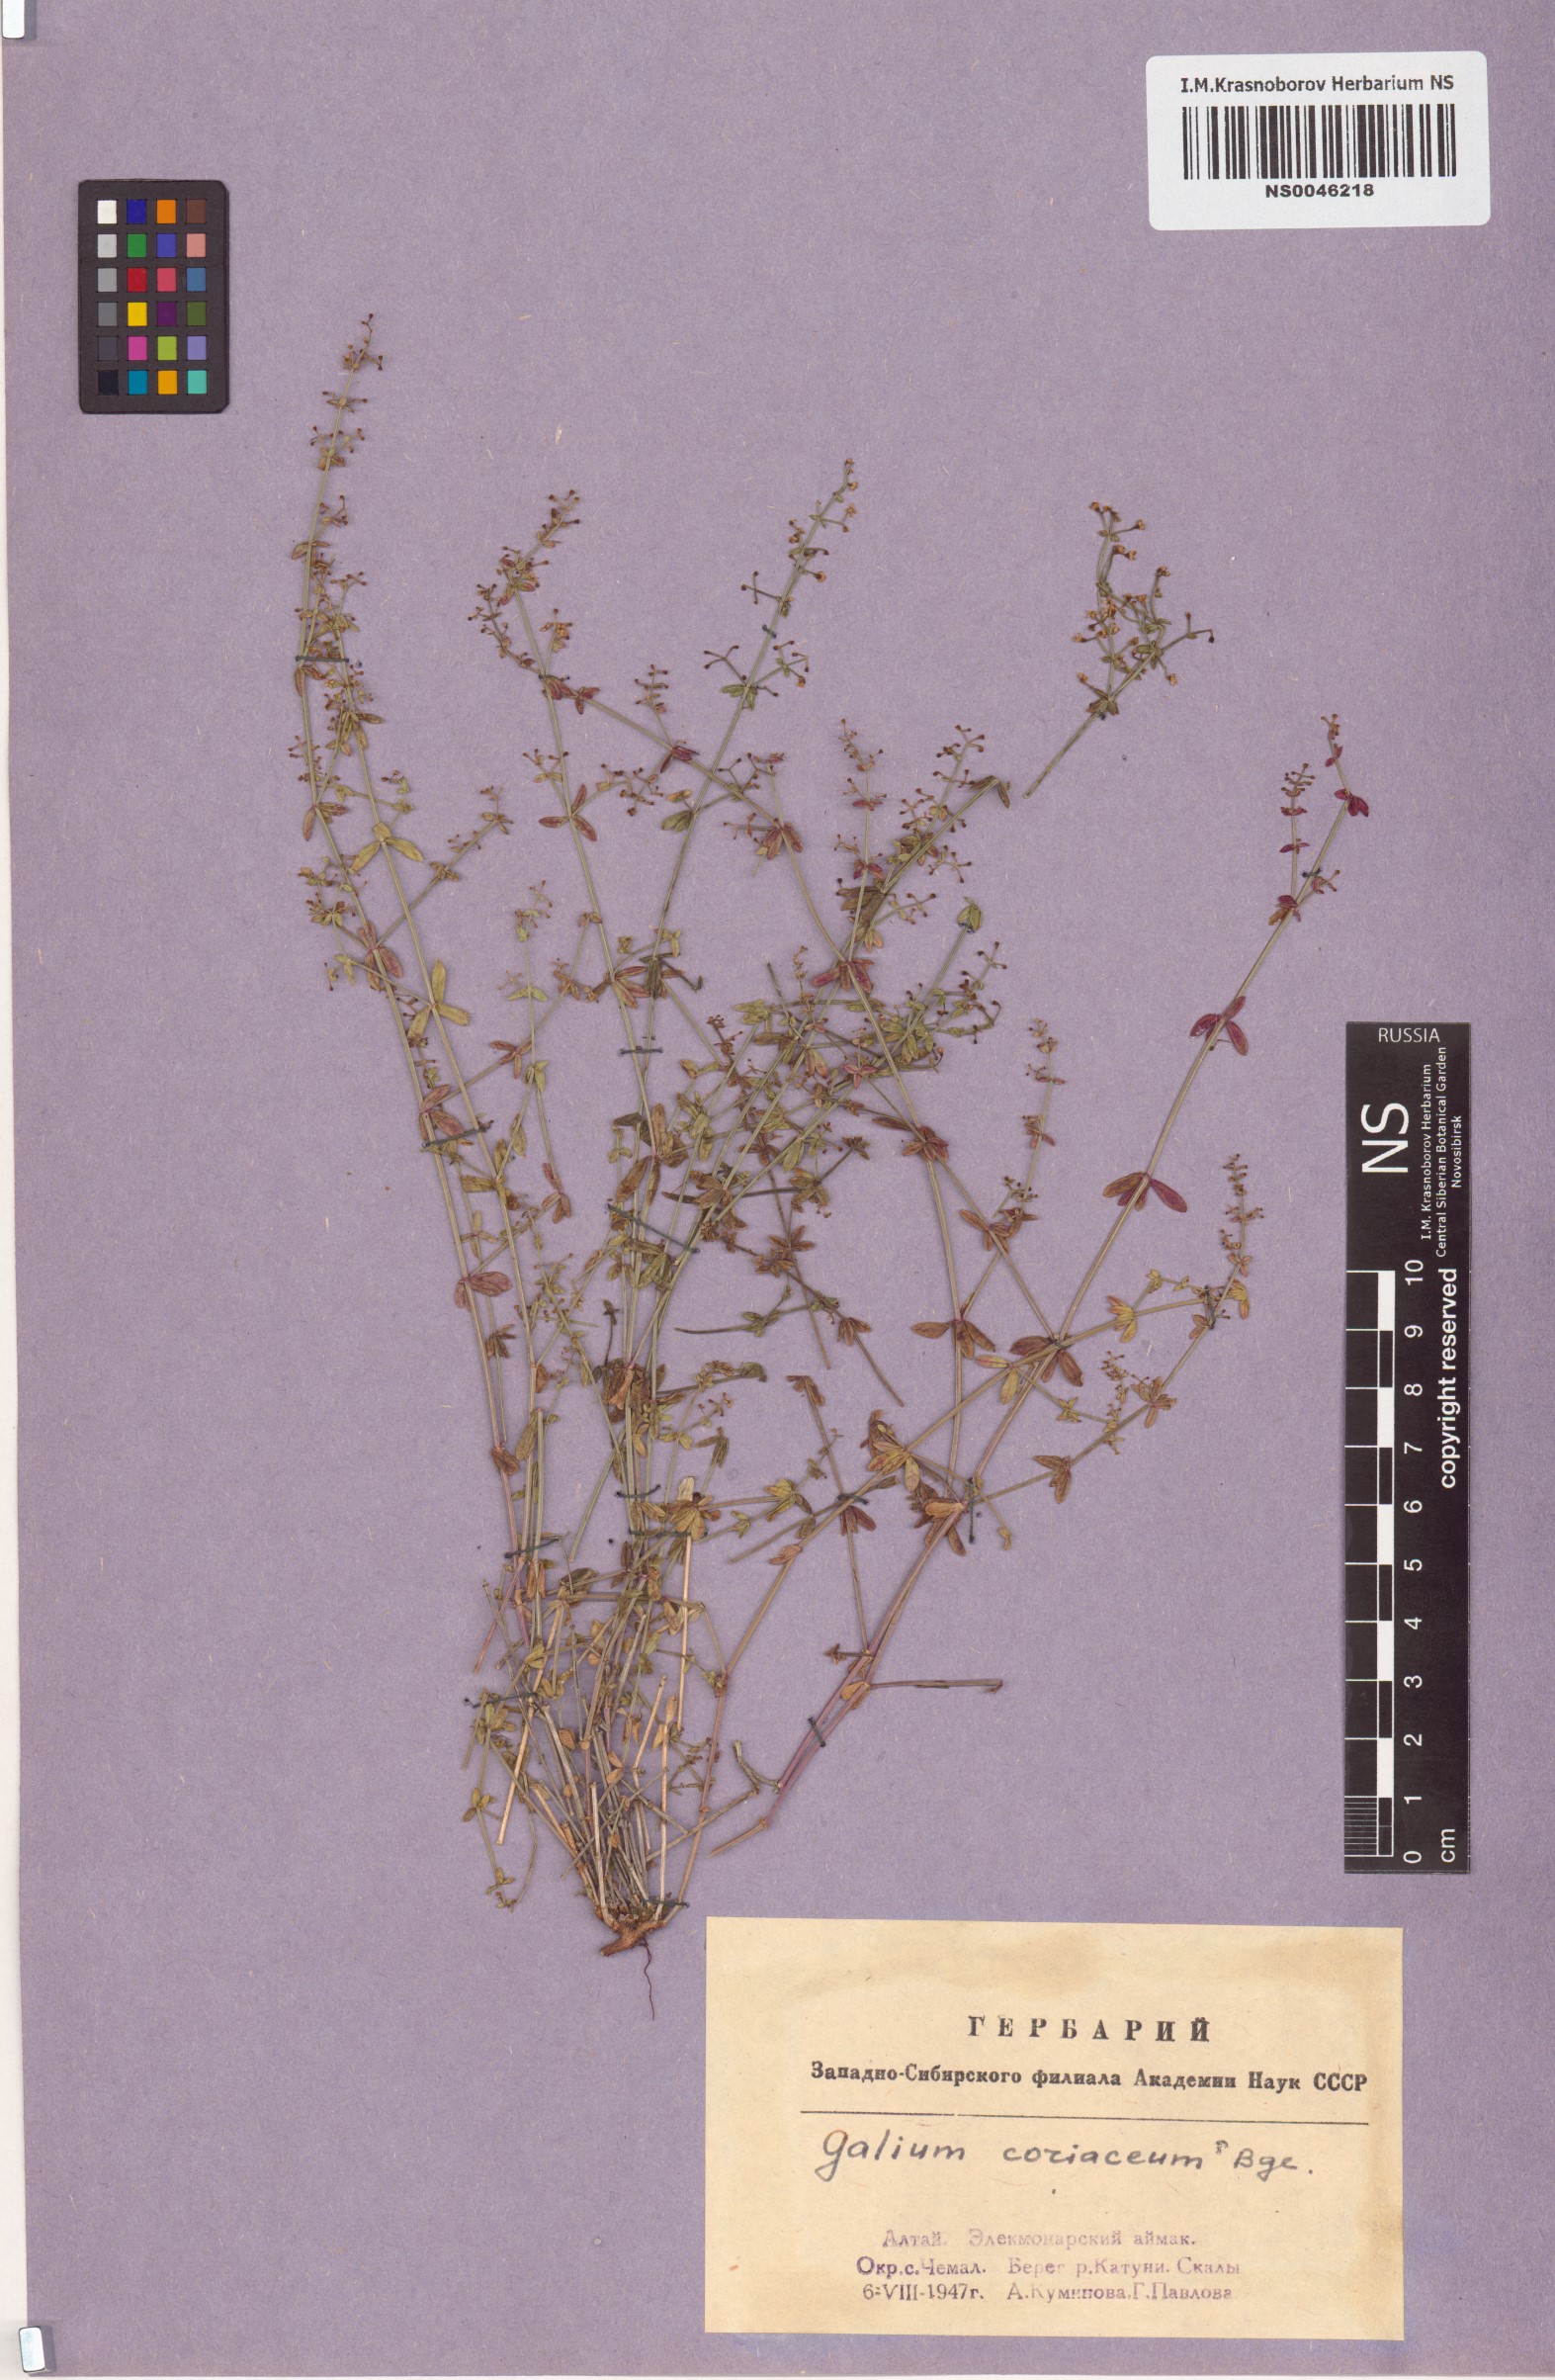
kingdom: Plantae
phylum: Tracheophyta
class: Magnoliopsida
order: Gentianales
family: Rubiaceae
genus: Galium
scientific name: Galium coriaceum
